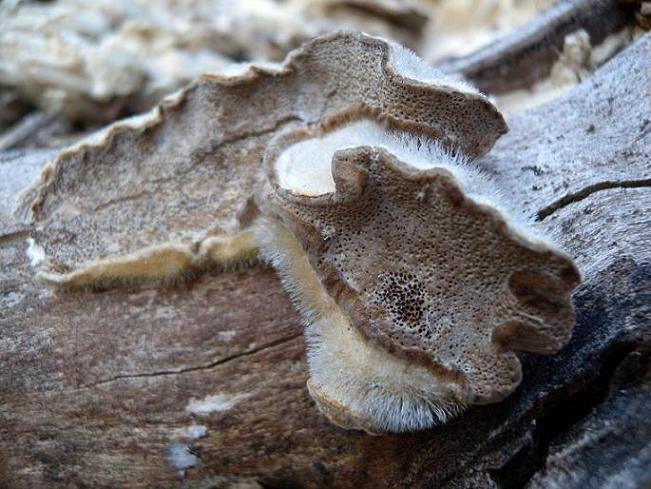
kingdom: Fungi
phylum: Basidiomycota
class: Agaricomycetes
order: Polyporales
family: Polyporaceae
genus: Trametes
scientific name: Trametes hirsuta
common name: håret læderporesvamp
